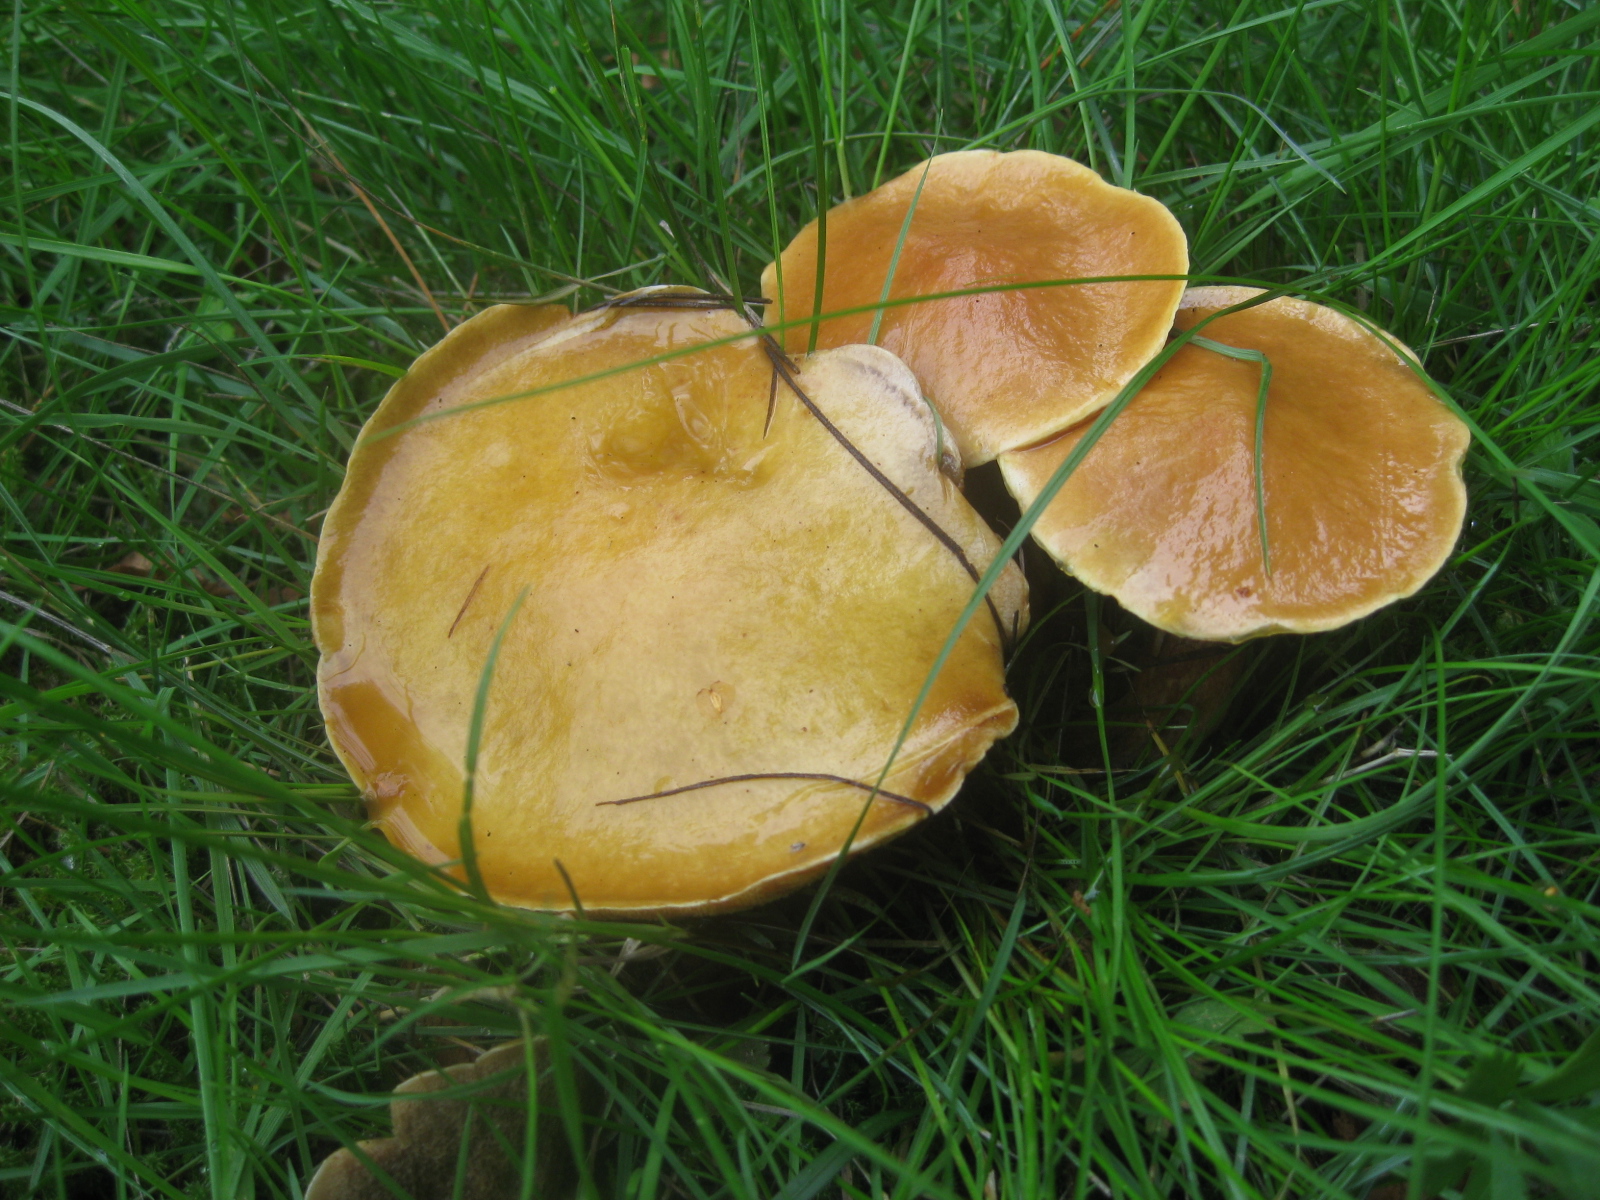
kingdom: Fungi
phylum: Basidiomycota
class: Agaricomycetes
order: Boletales
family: Suillaceae
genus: Suillus
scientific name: Suillus grevillei
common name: lærke-slimrørhat
